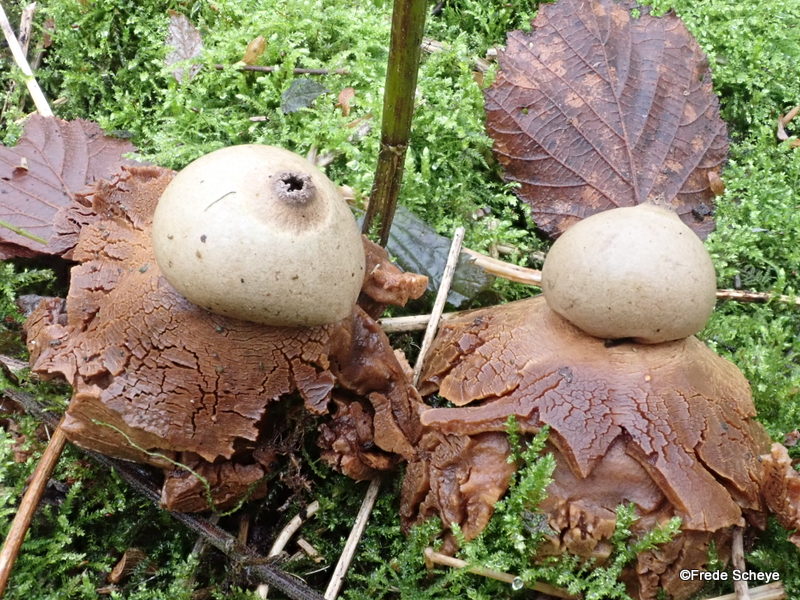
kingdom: Fungi
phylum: Basidiomycota
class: Agaricomycetes
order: Geastrales
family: Geastraceae
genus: Geastrum
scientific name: Geastrum michelianum
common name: kødet stjernebold
